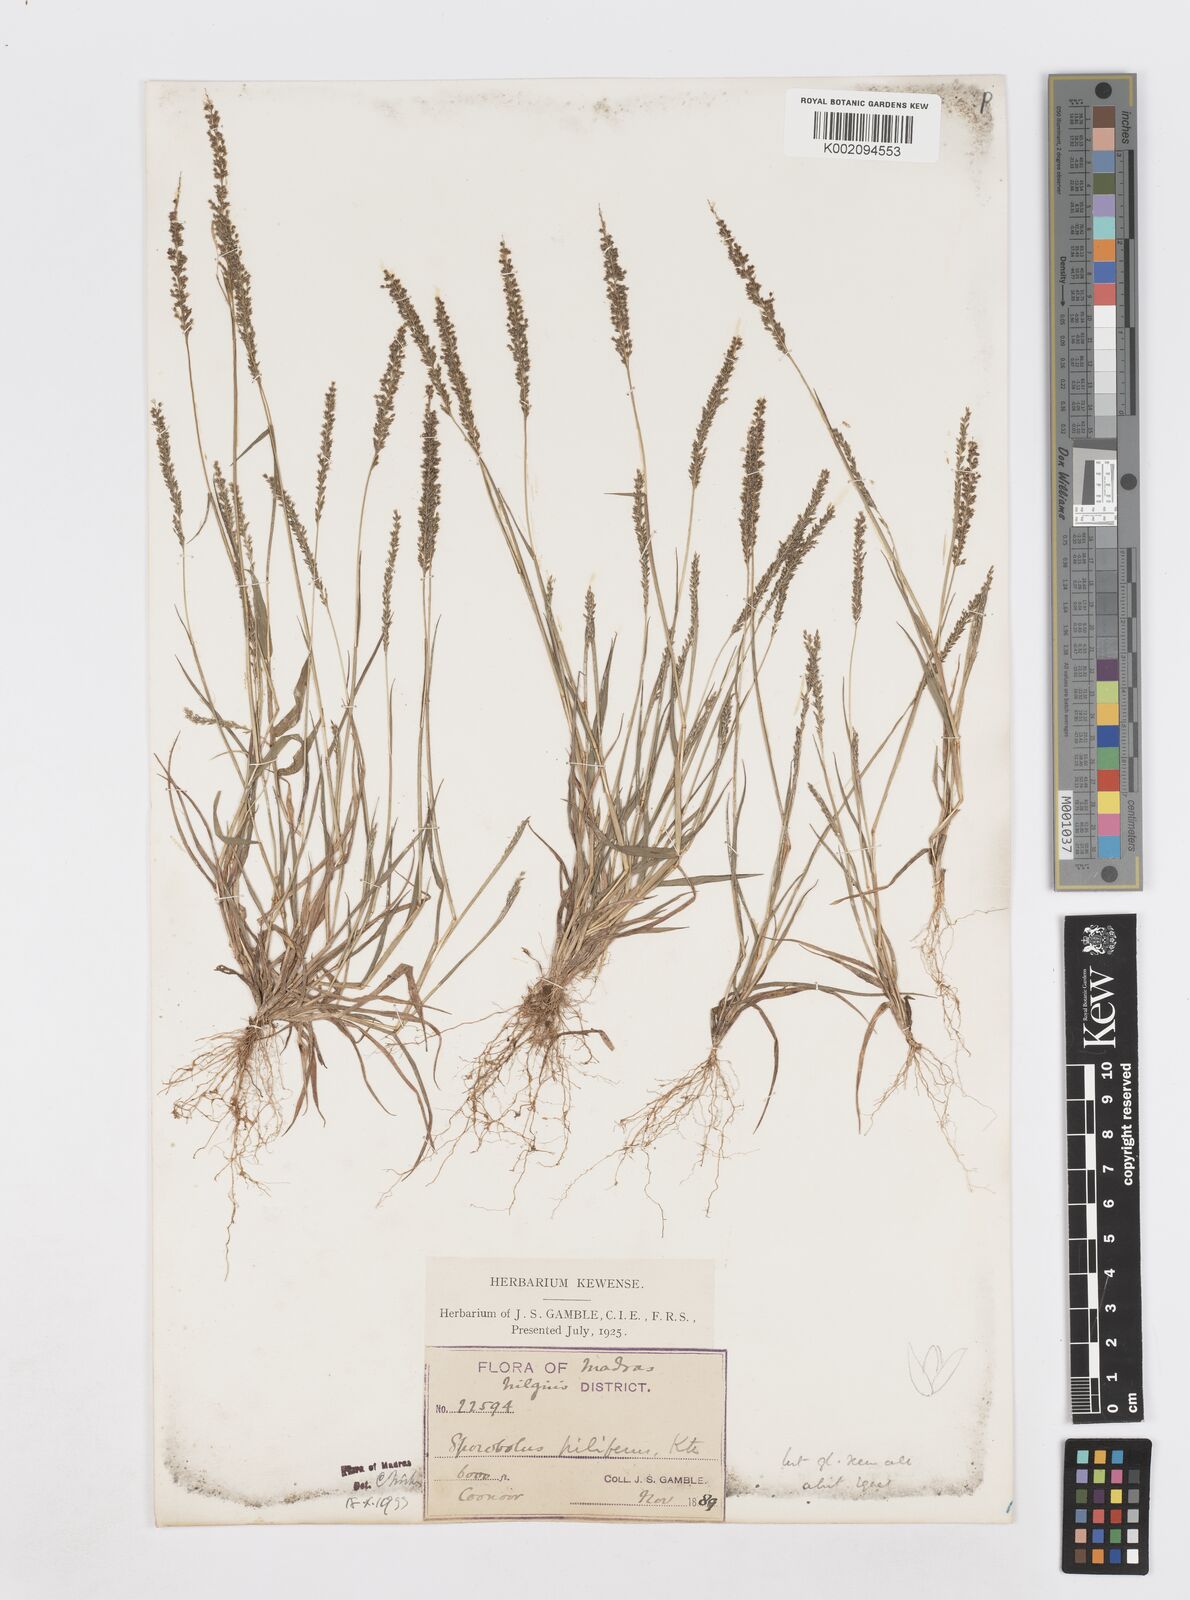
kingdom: Plantae
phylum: Tracheophyta
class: Liliopsida
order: Poales
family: Poaceae
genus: Sporobolus
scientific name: Sporobolus pilifer
